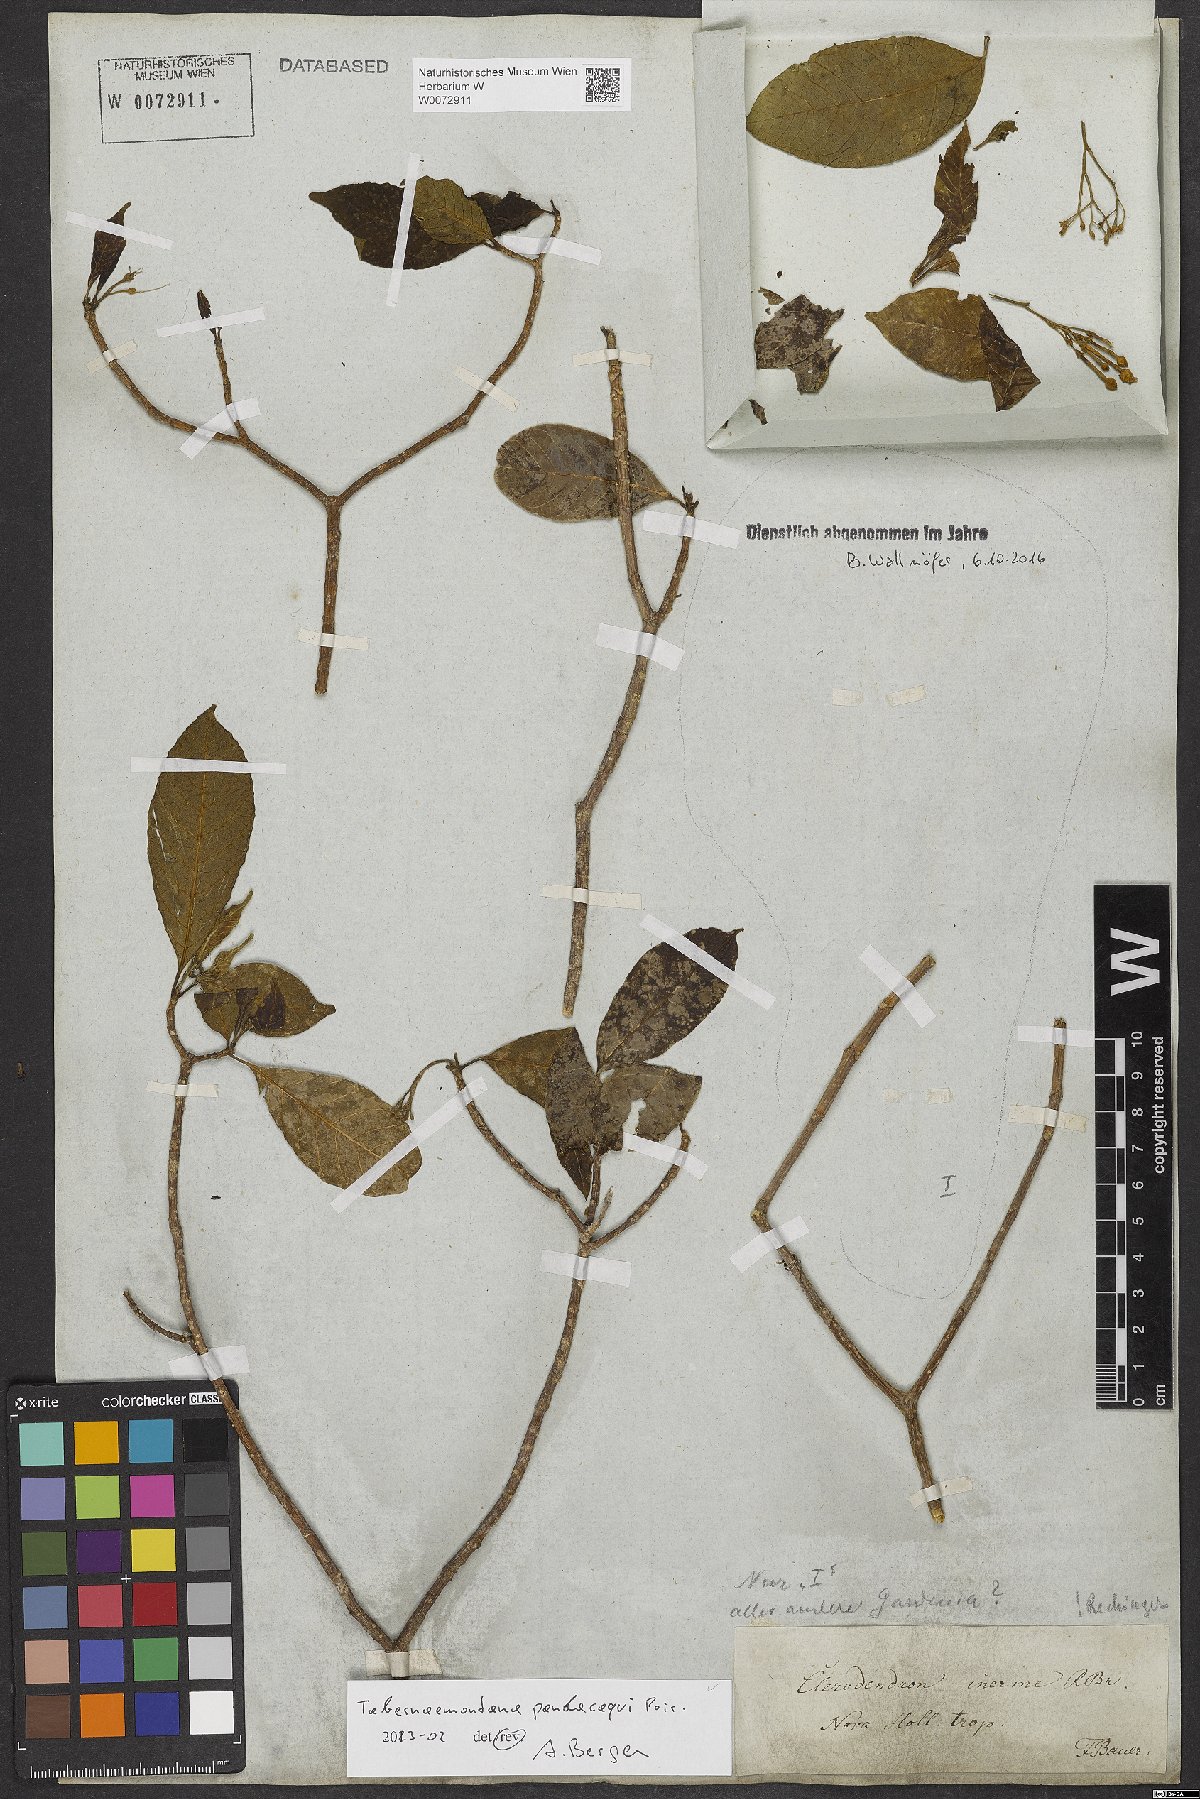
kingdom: Plantae
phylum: Tracheophyta
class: Magnoliopsida
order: Gentianales
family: Apocynaceae
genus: Tabernaemontana
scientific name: Tabernaemontana pandacaqui
